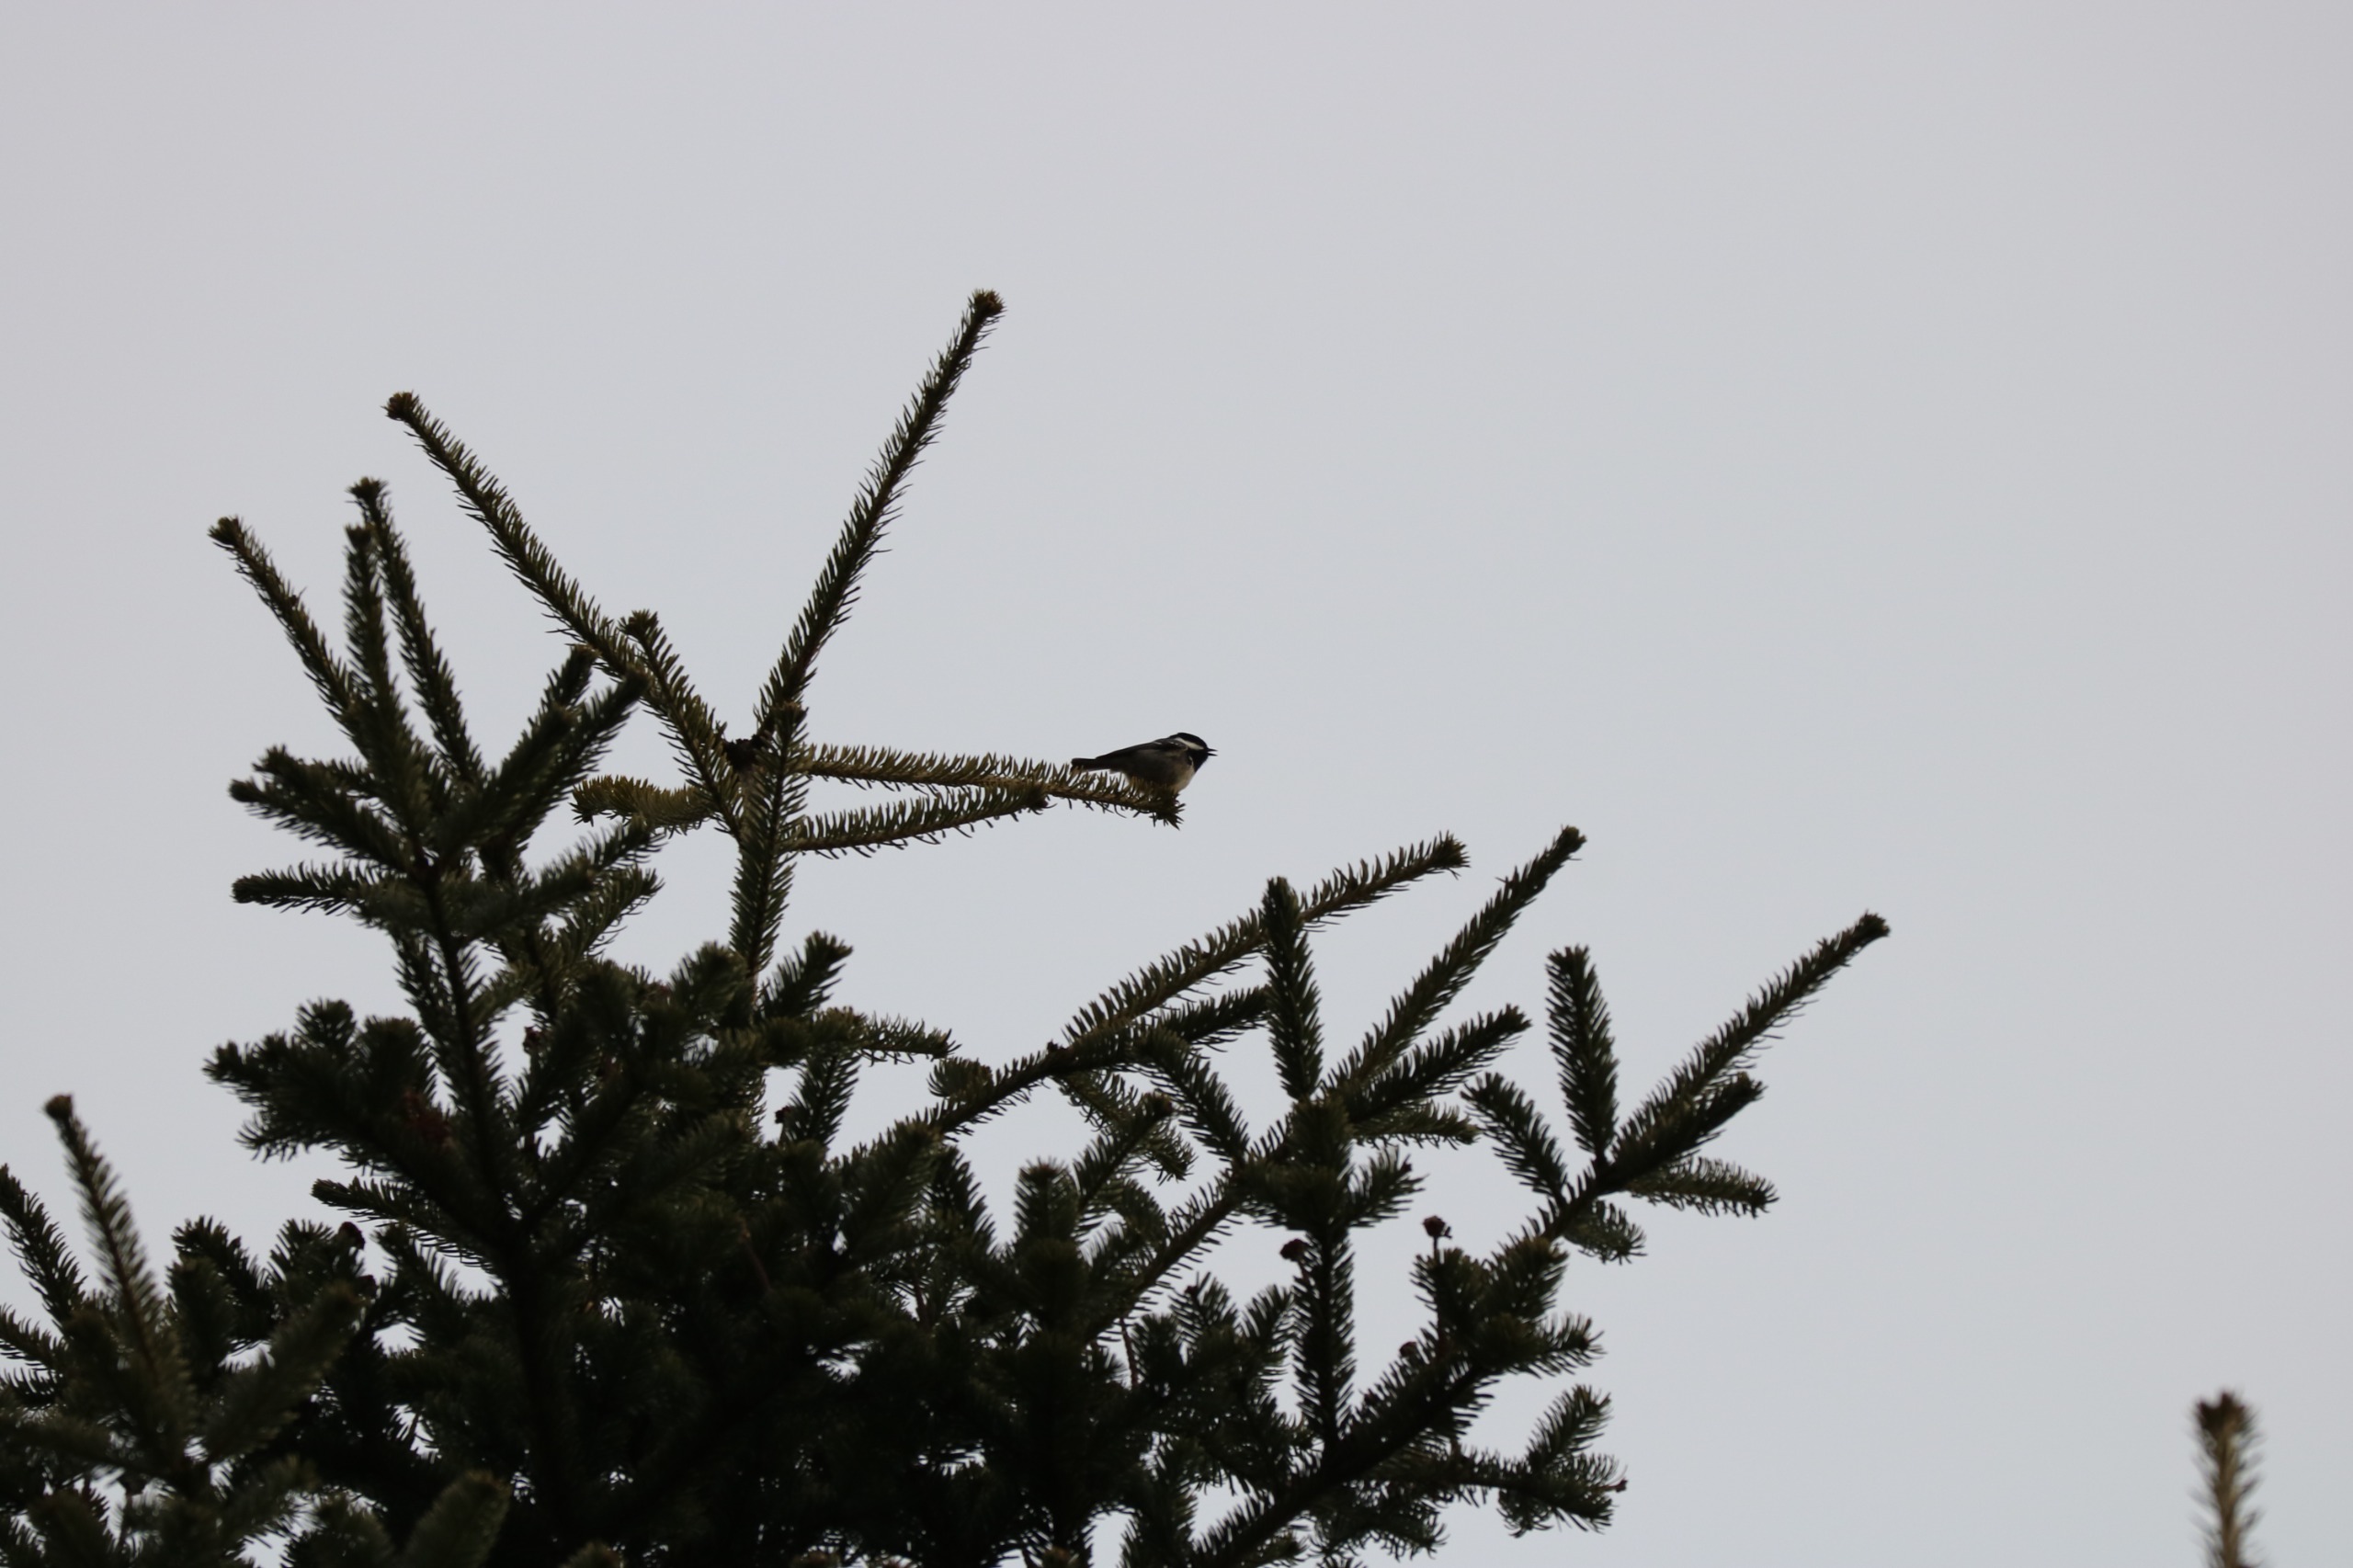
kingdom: Animalia
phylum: Chordata
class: Aves
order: Passeriformes
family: Paridae
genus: Periparus
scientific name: Periparus ater
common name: Sortmejse
